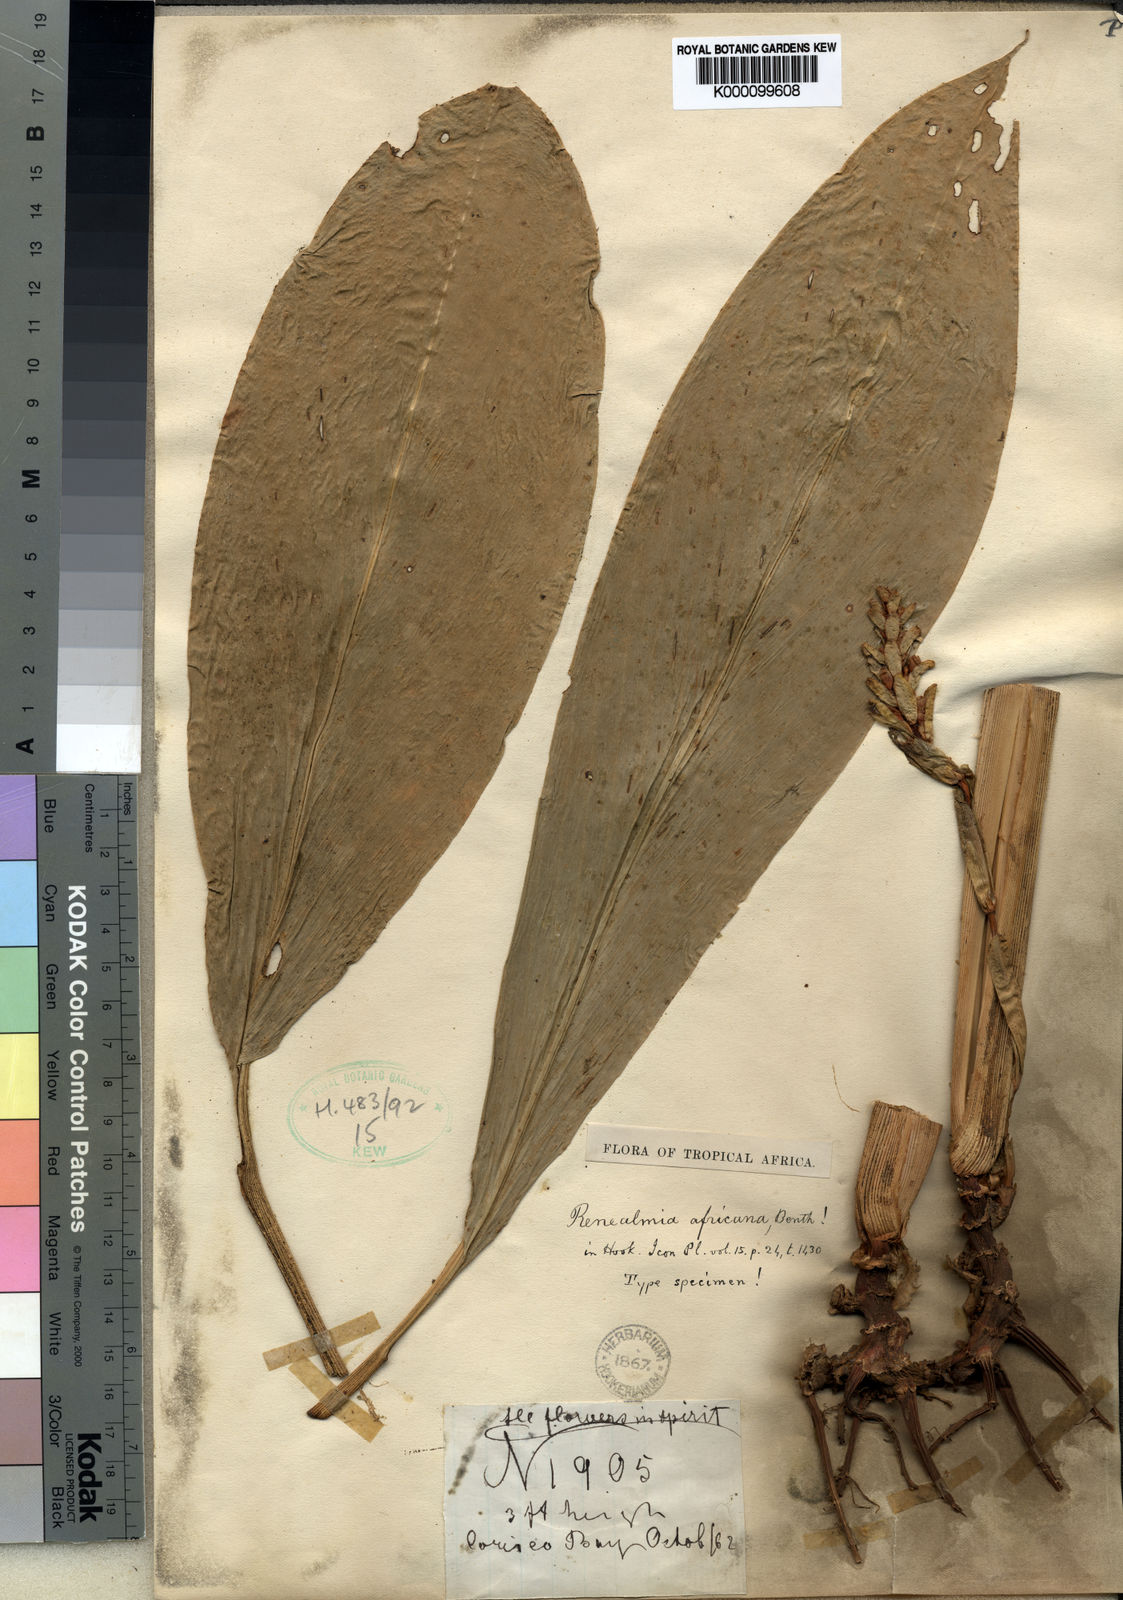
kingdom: Plantae
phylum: Tracheophyta
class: Liliopsida
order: Zingiberales
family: Zingiberaceae
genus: Renealmia
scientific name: Renealmia africana
